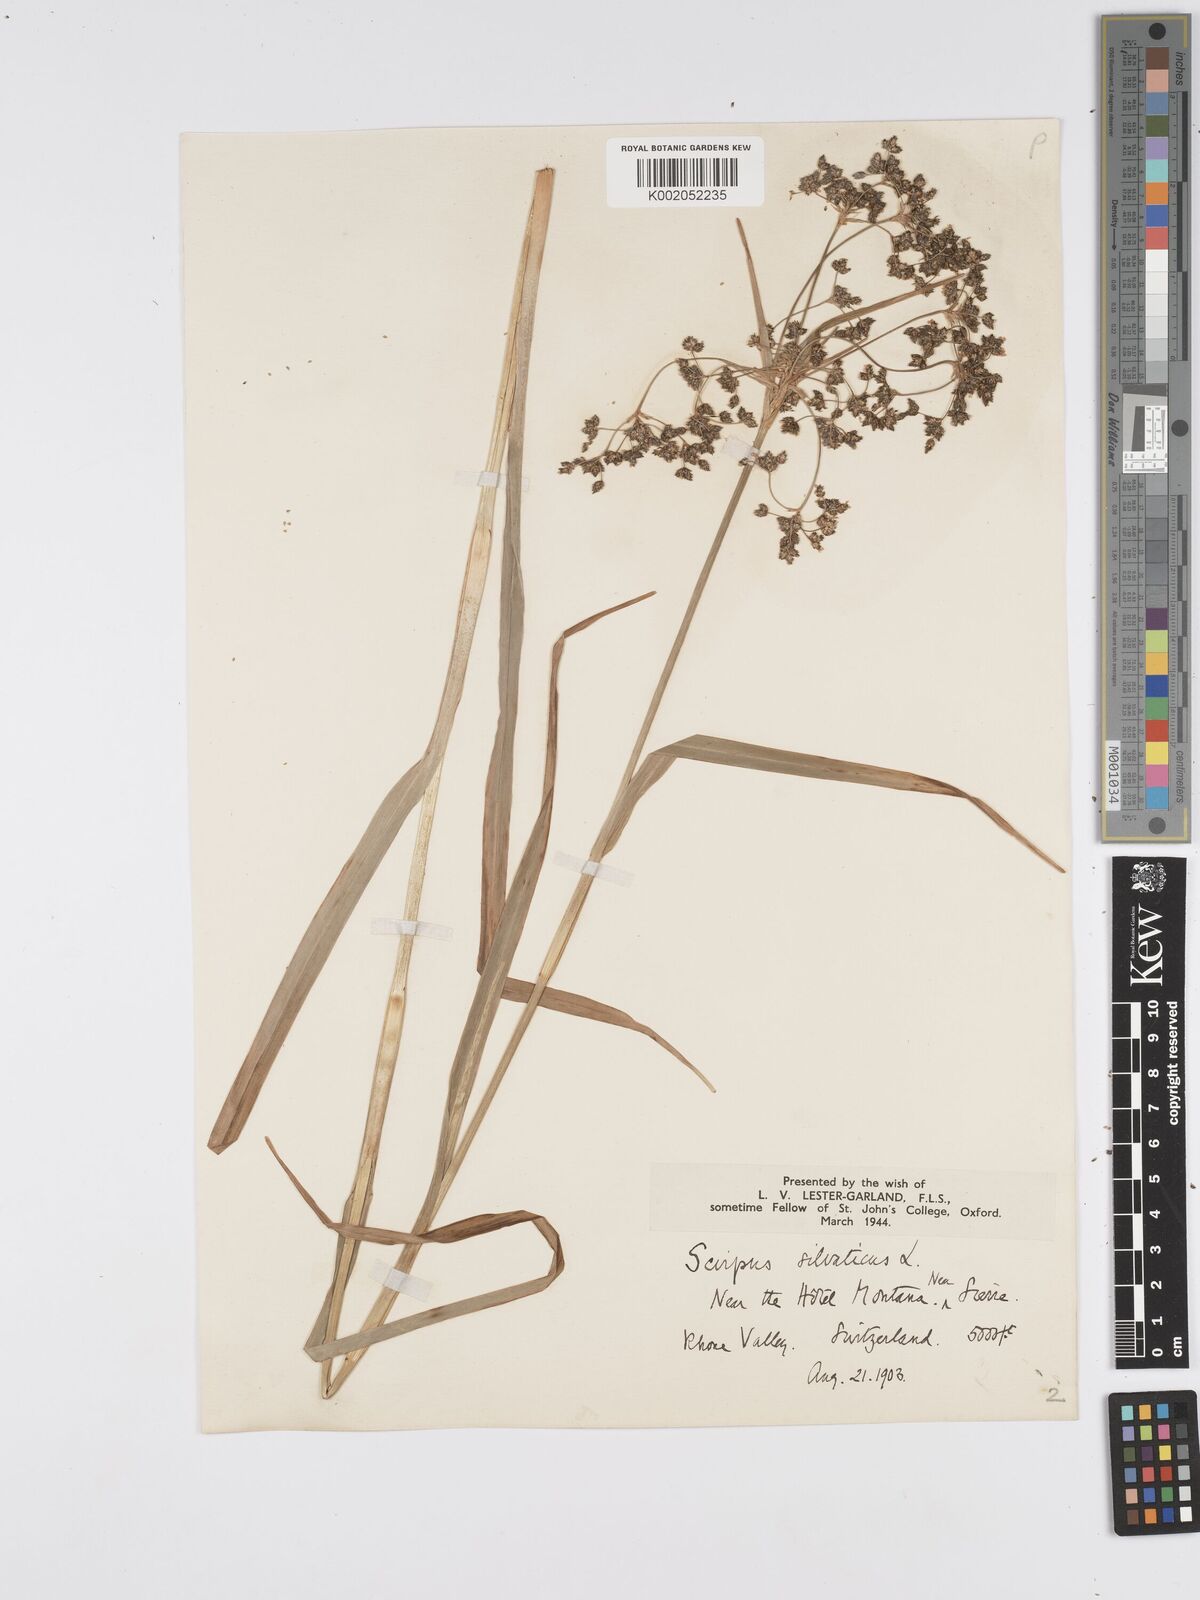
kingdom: Plantae
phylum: Tracheophyta
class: Liliopsida
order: Poales
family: Cyperaceae
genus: Scirpus
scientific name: Scirpus sylvaticus
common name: Wood club-rush
